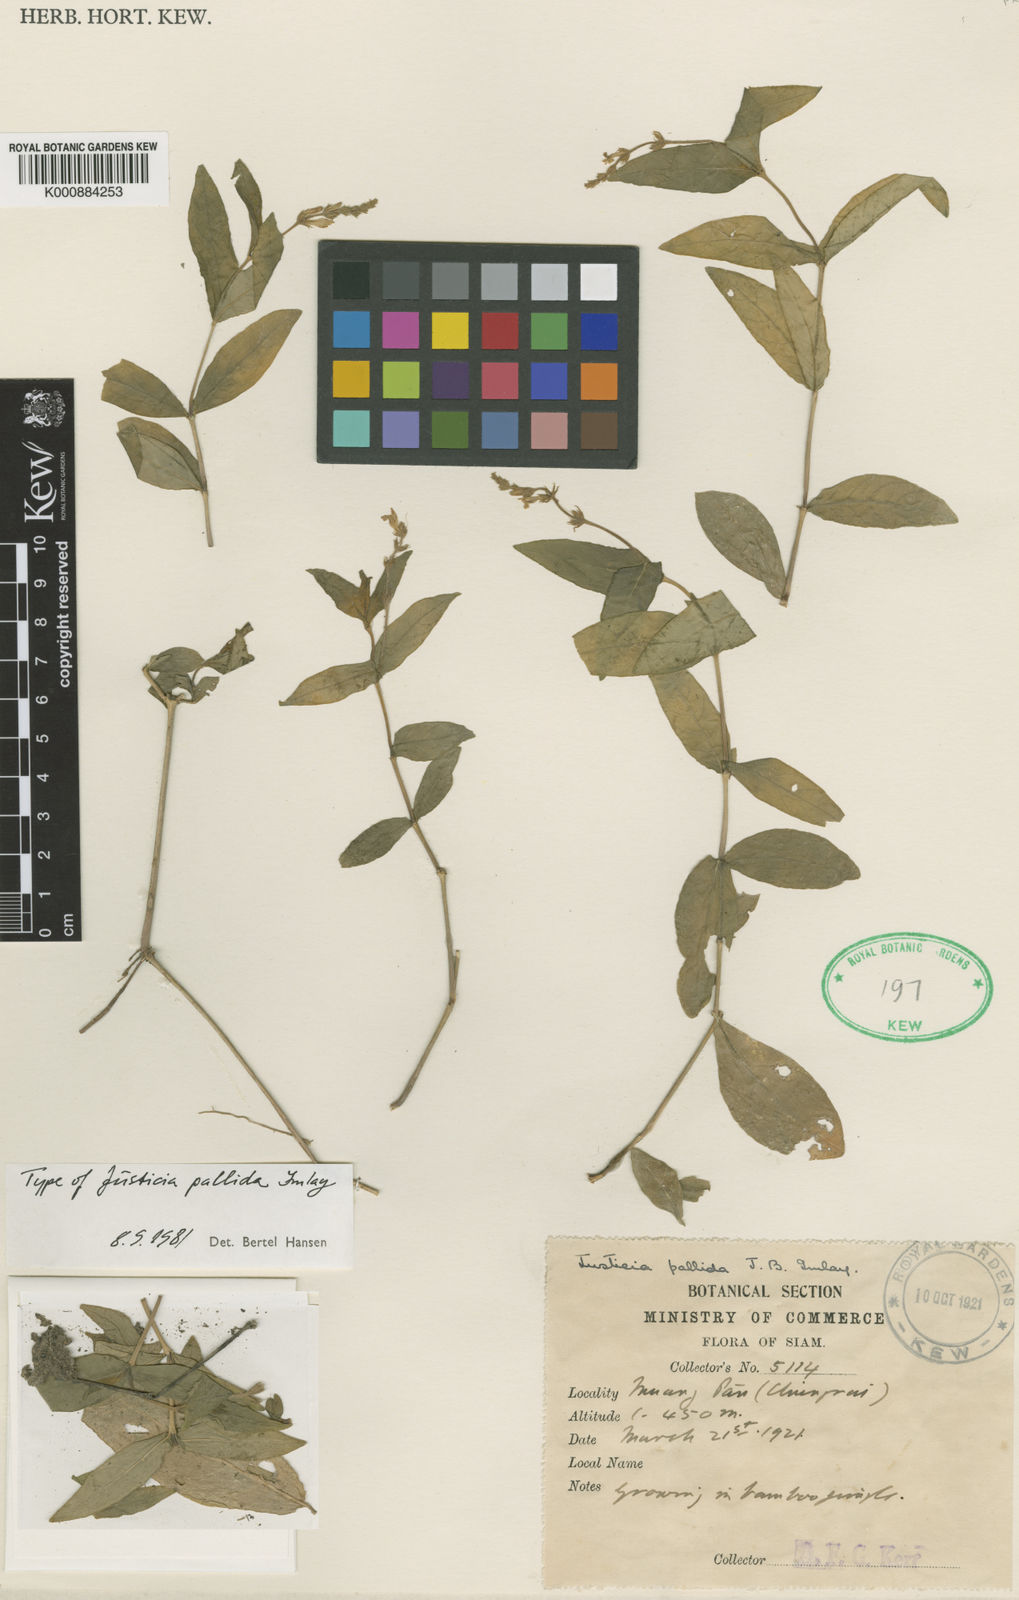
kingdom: Plantae
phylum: Tracheophyta
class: Magnoliopsida
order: Lamiales
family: Acanthaceae
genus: Justicia
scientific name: Justicia pallida
